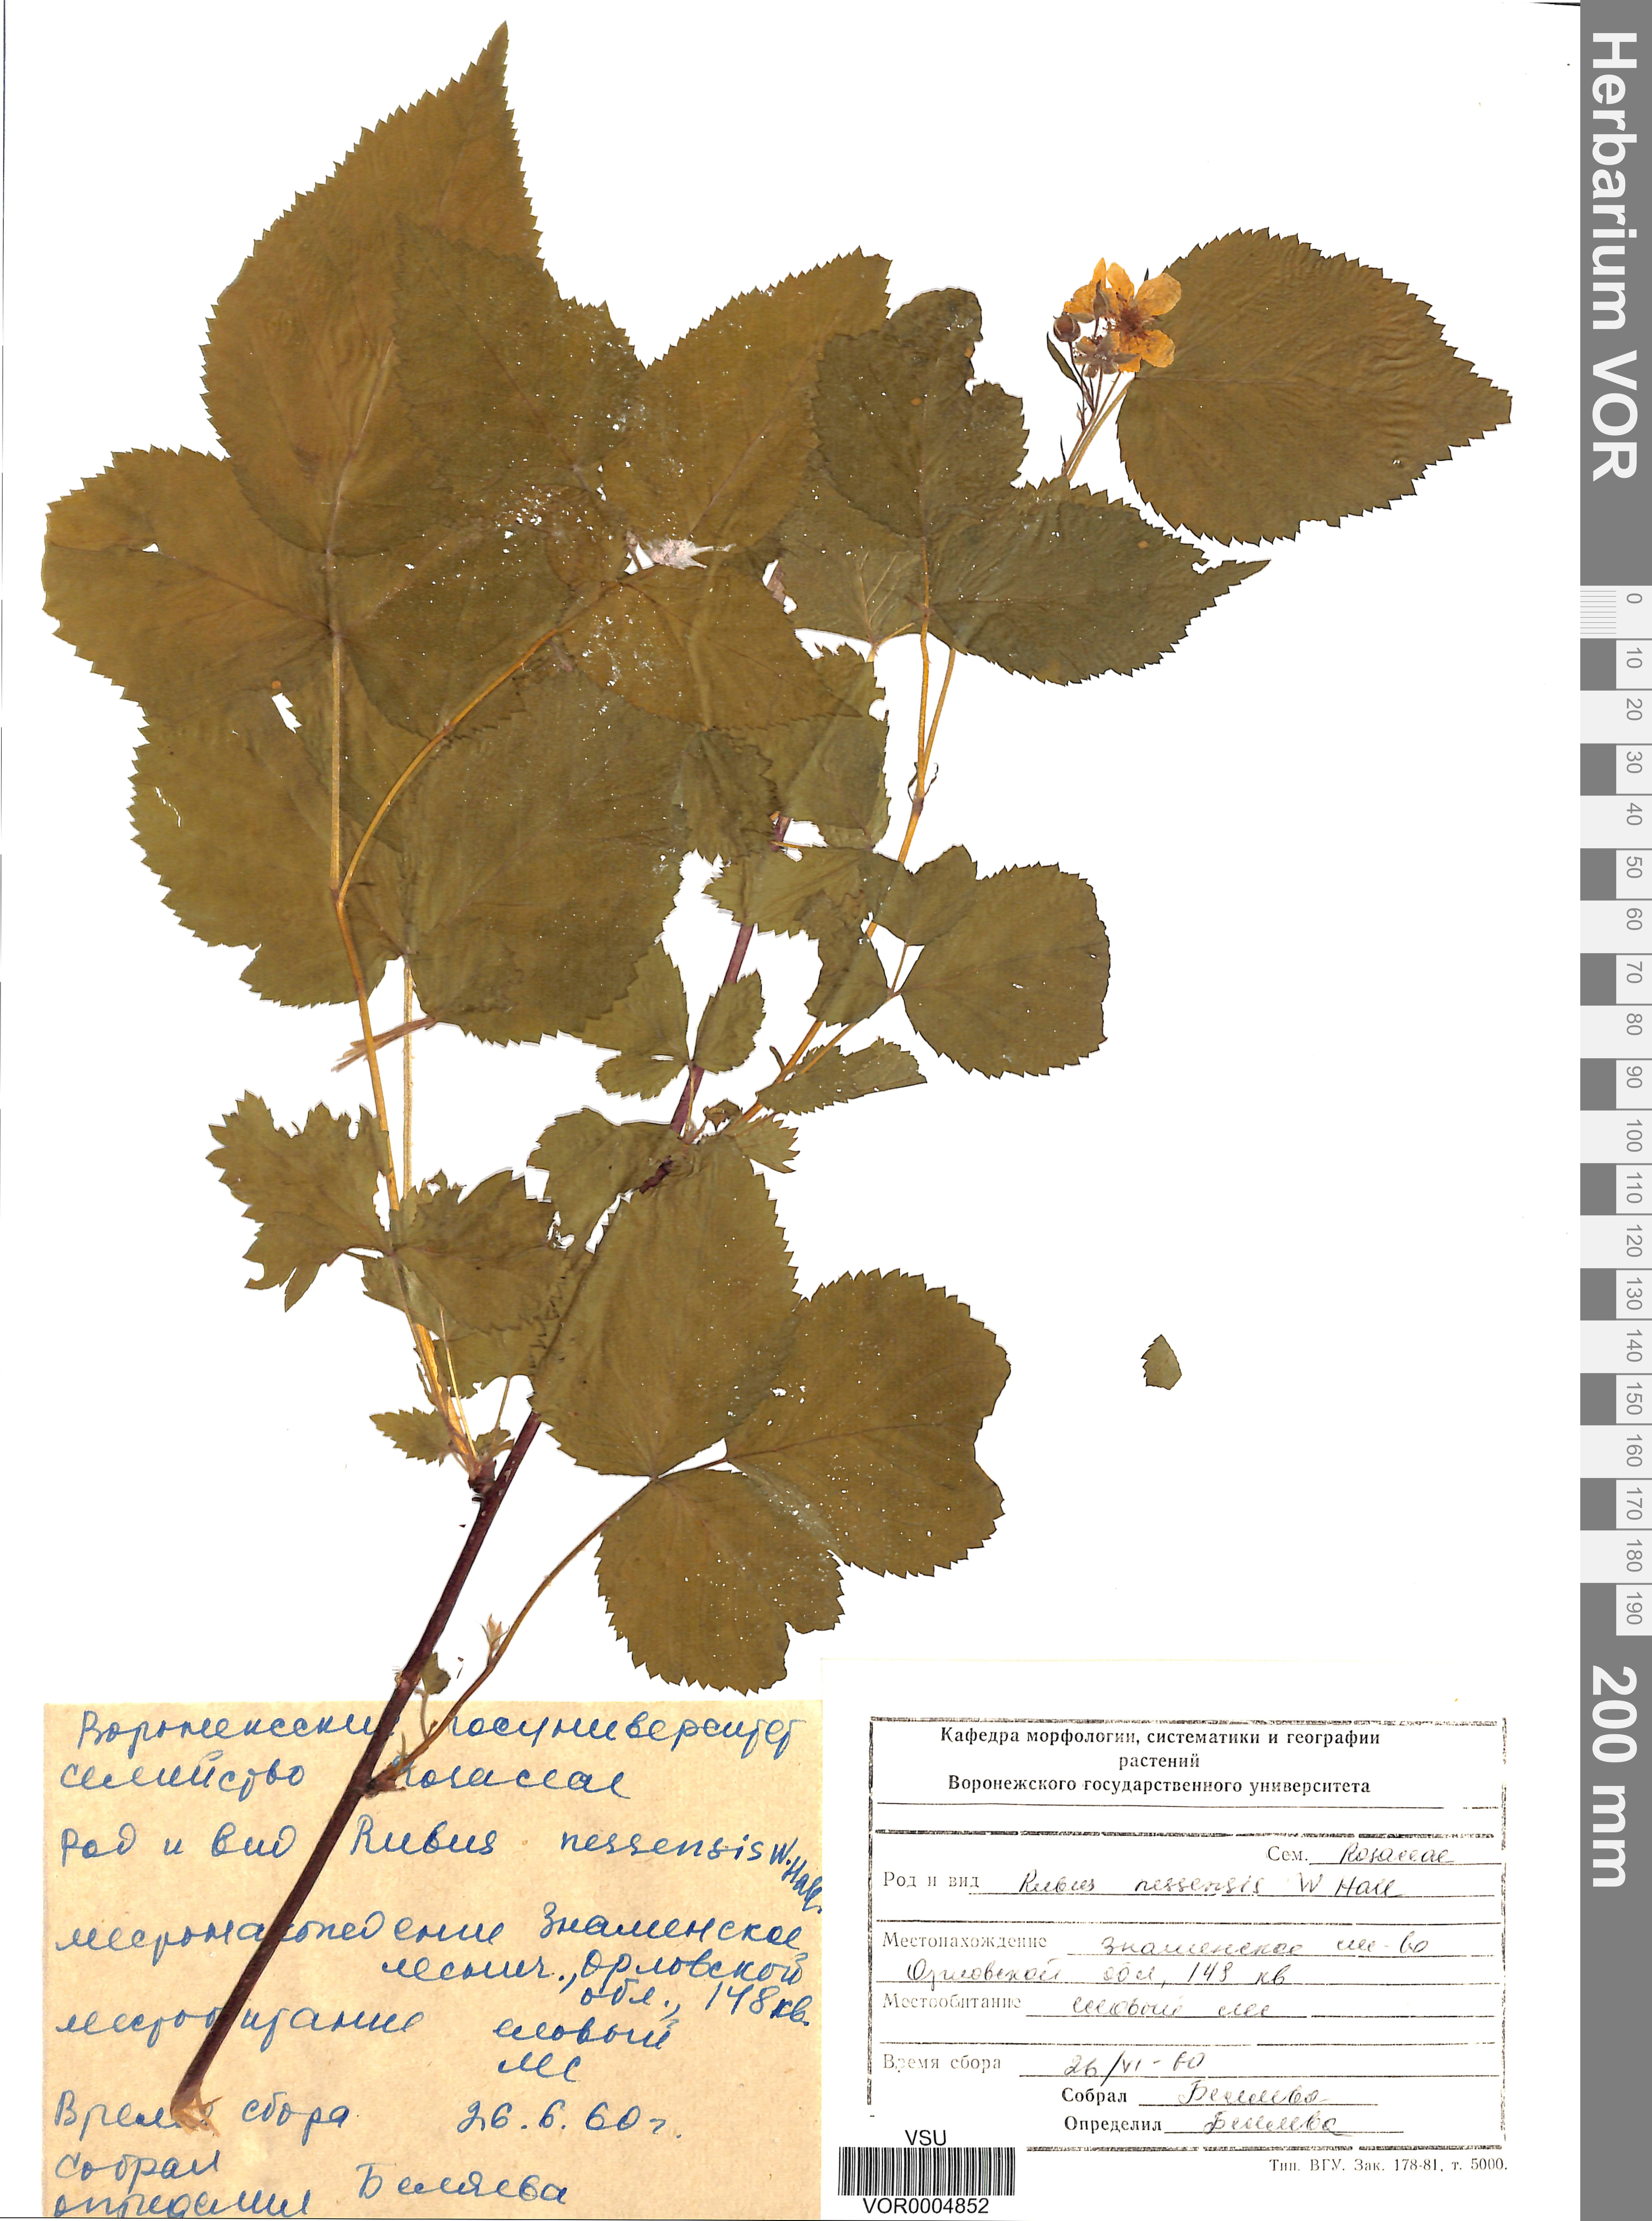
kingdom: Plantae
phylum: Tracheophyta
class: Magnoliopsida
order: Rosales
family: Rosaceae
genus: Rubus
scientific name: Rubus polonicus
